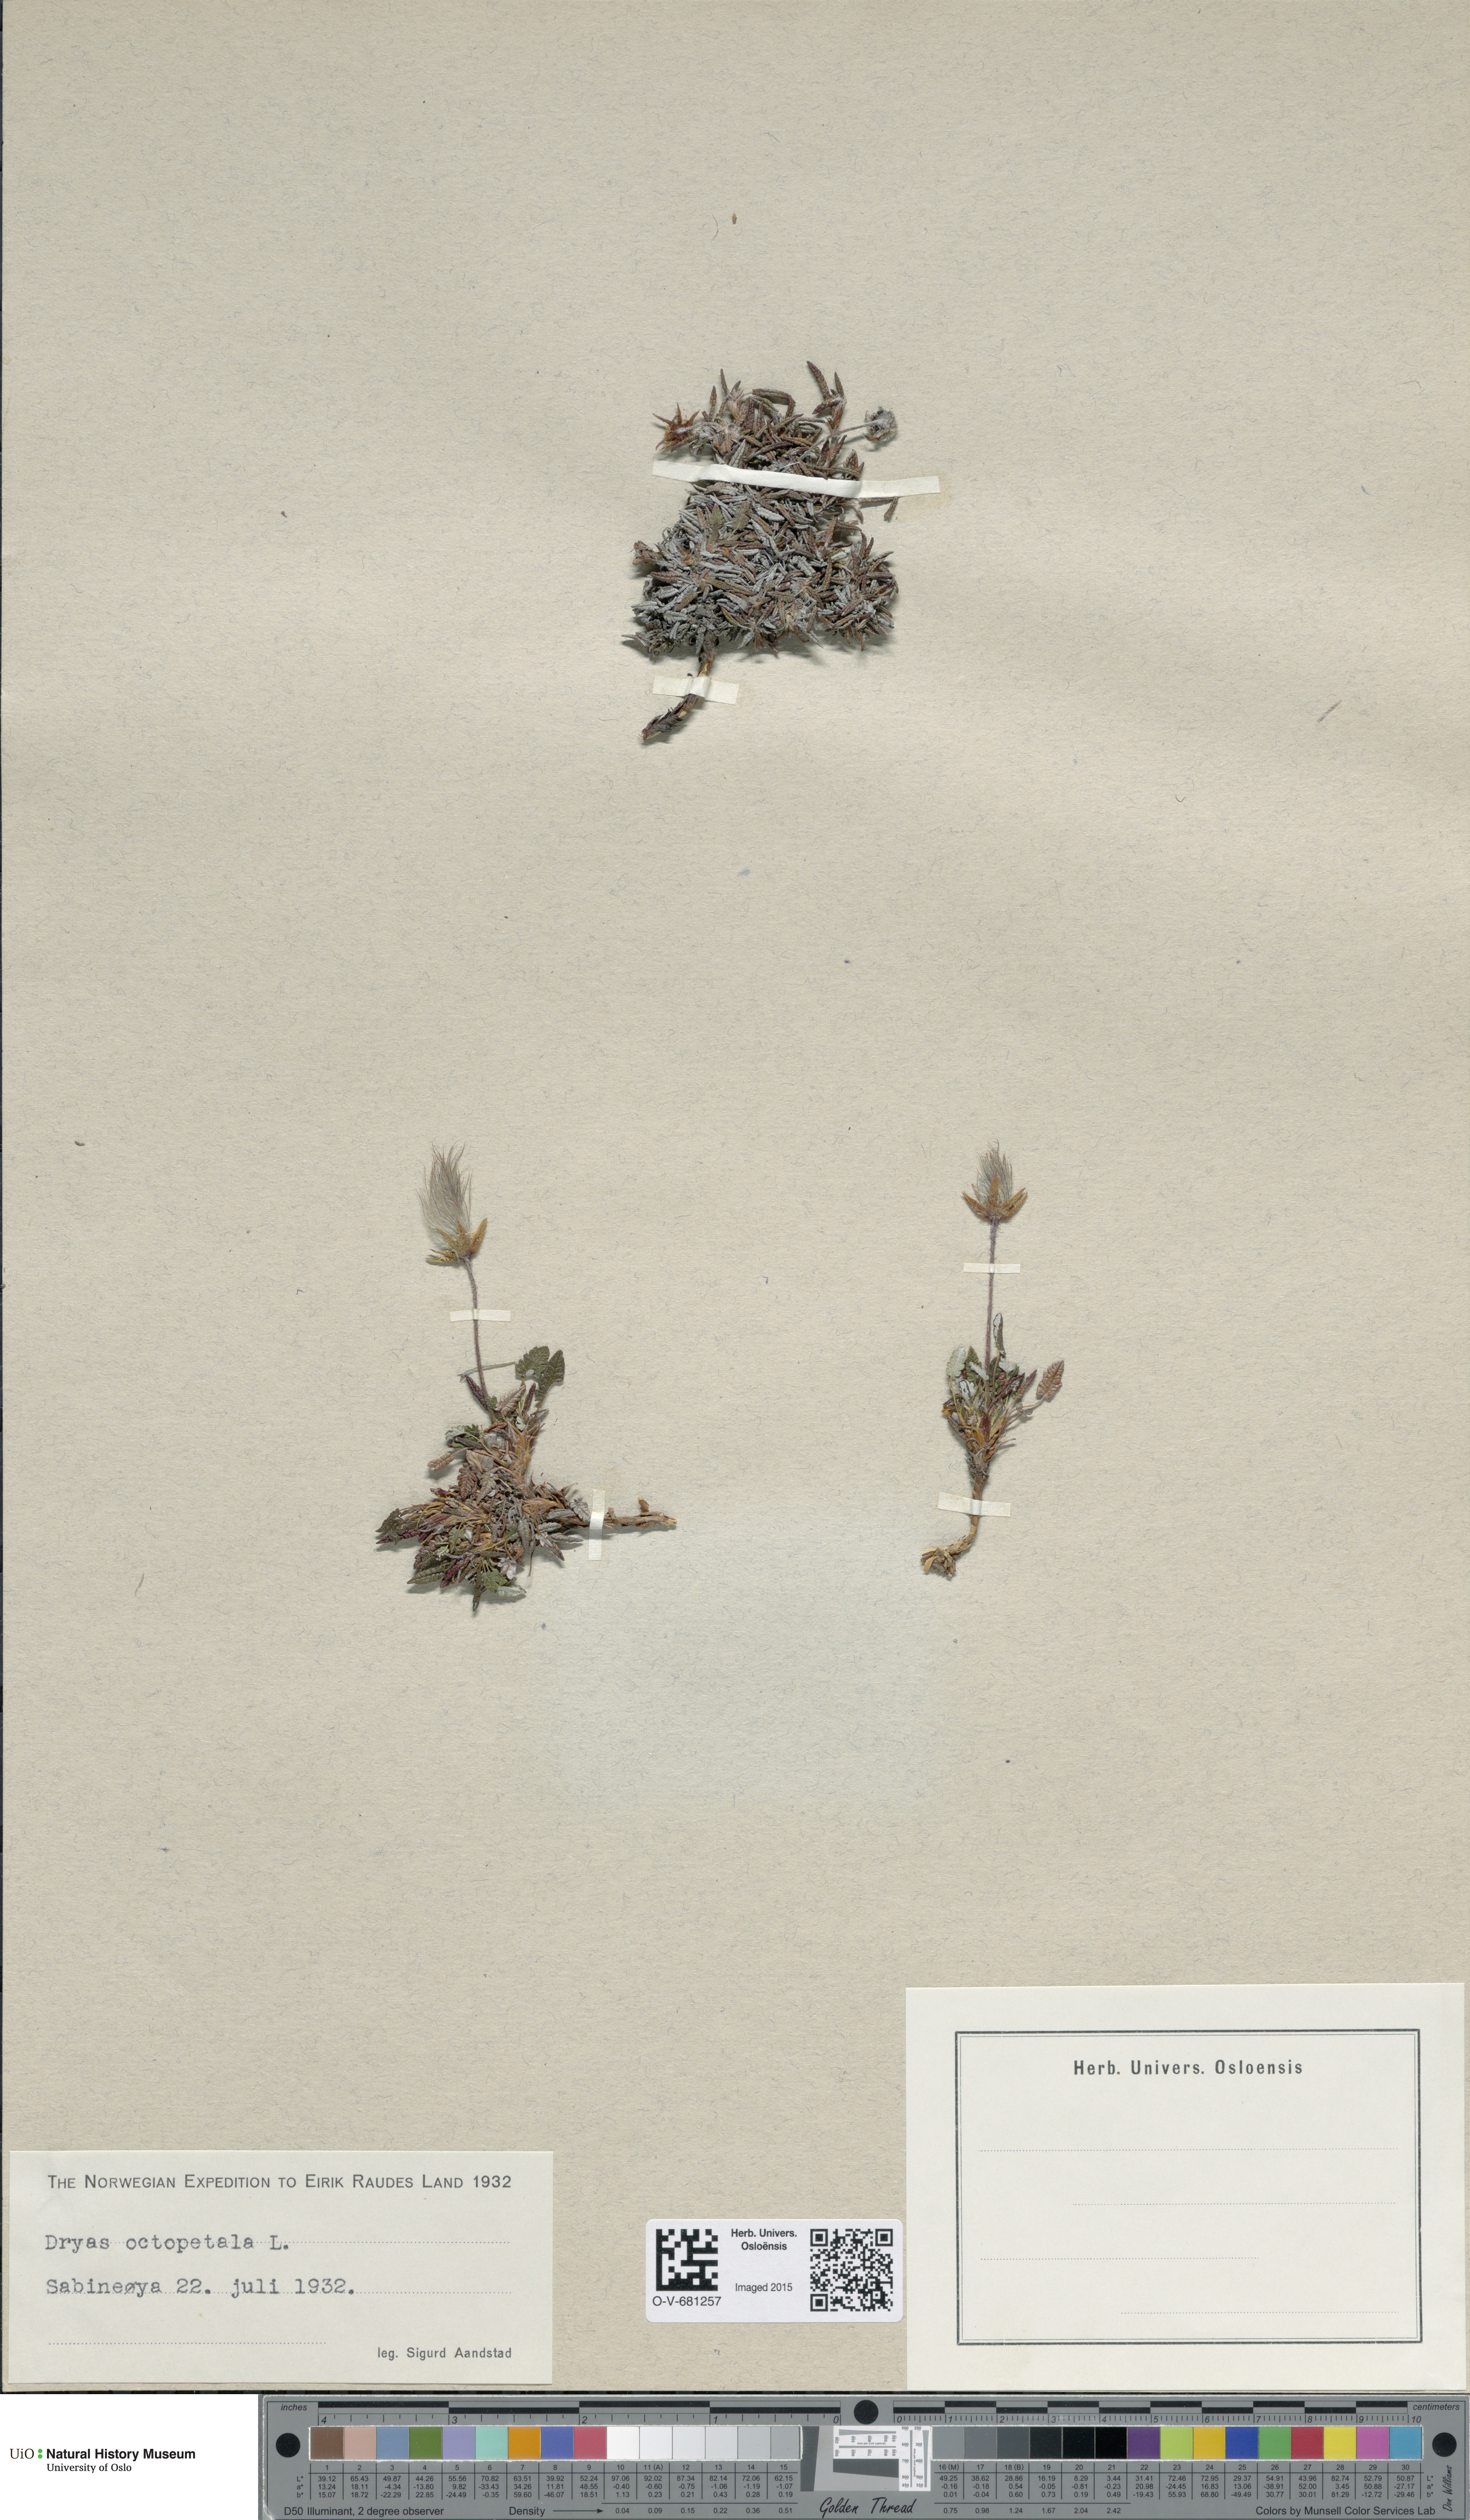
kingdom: Plantae
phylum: Tracheophyta
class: Magnoliopsida
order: Rosales
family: Rosaceae
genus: Dryas
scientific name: Dryas octopetala
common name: Eight-petal mountain-avens
